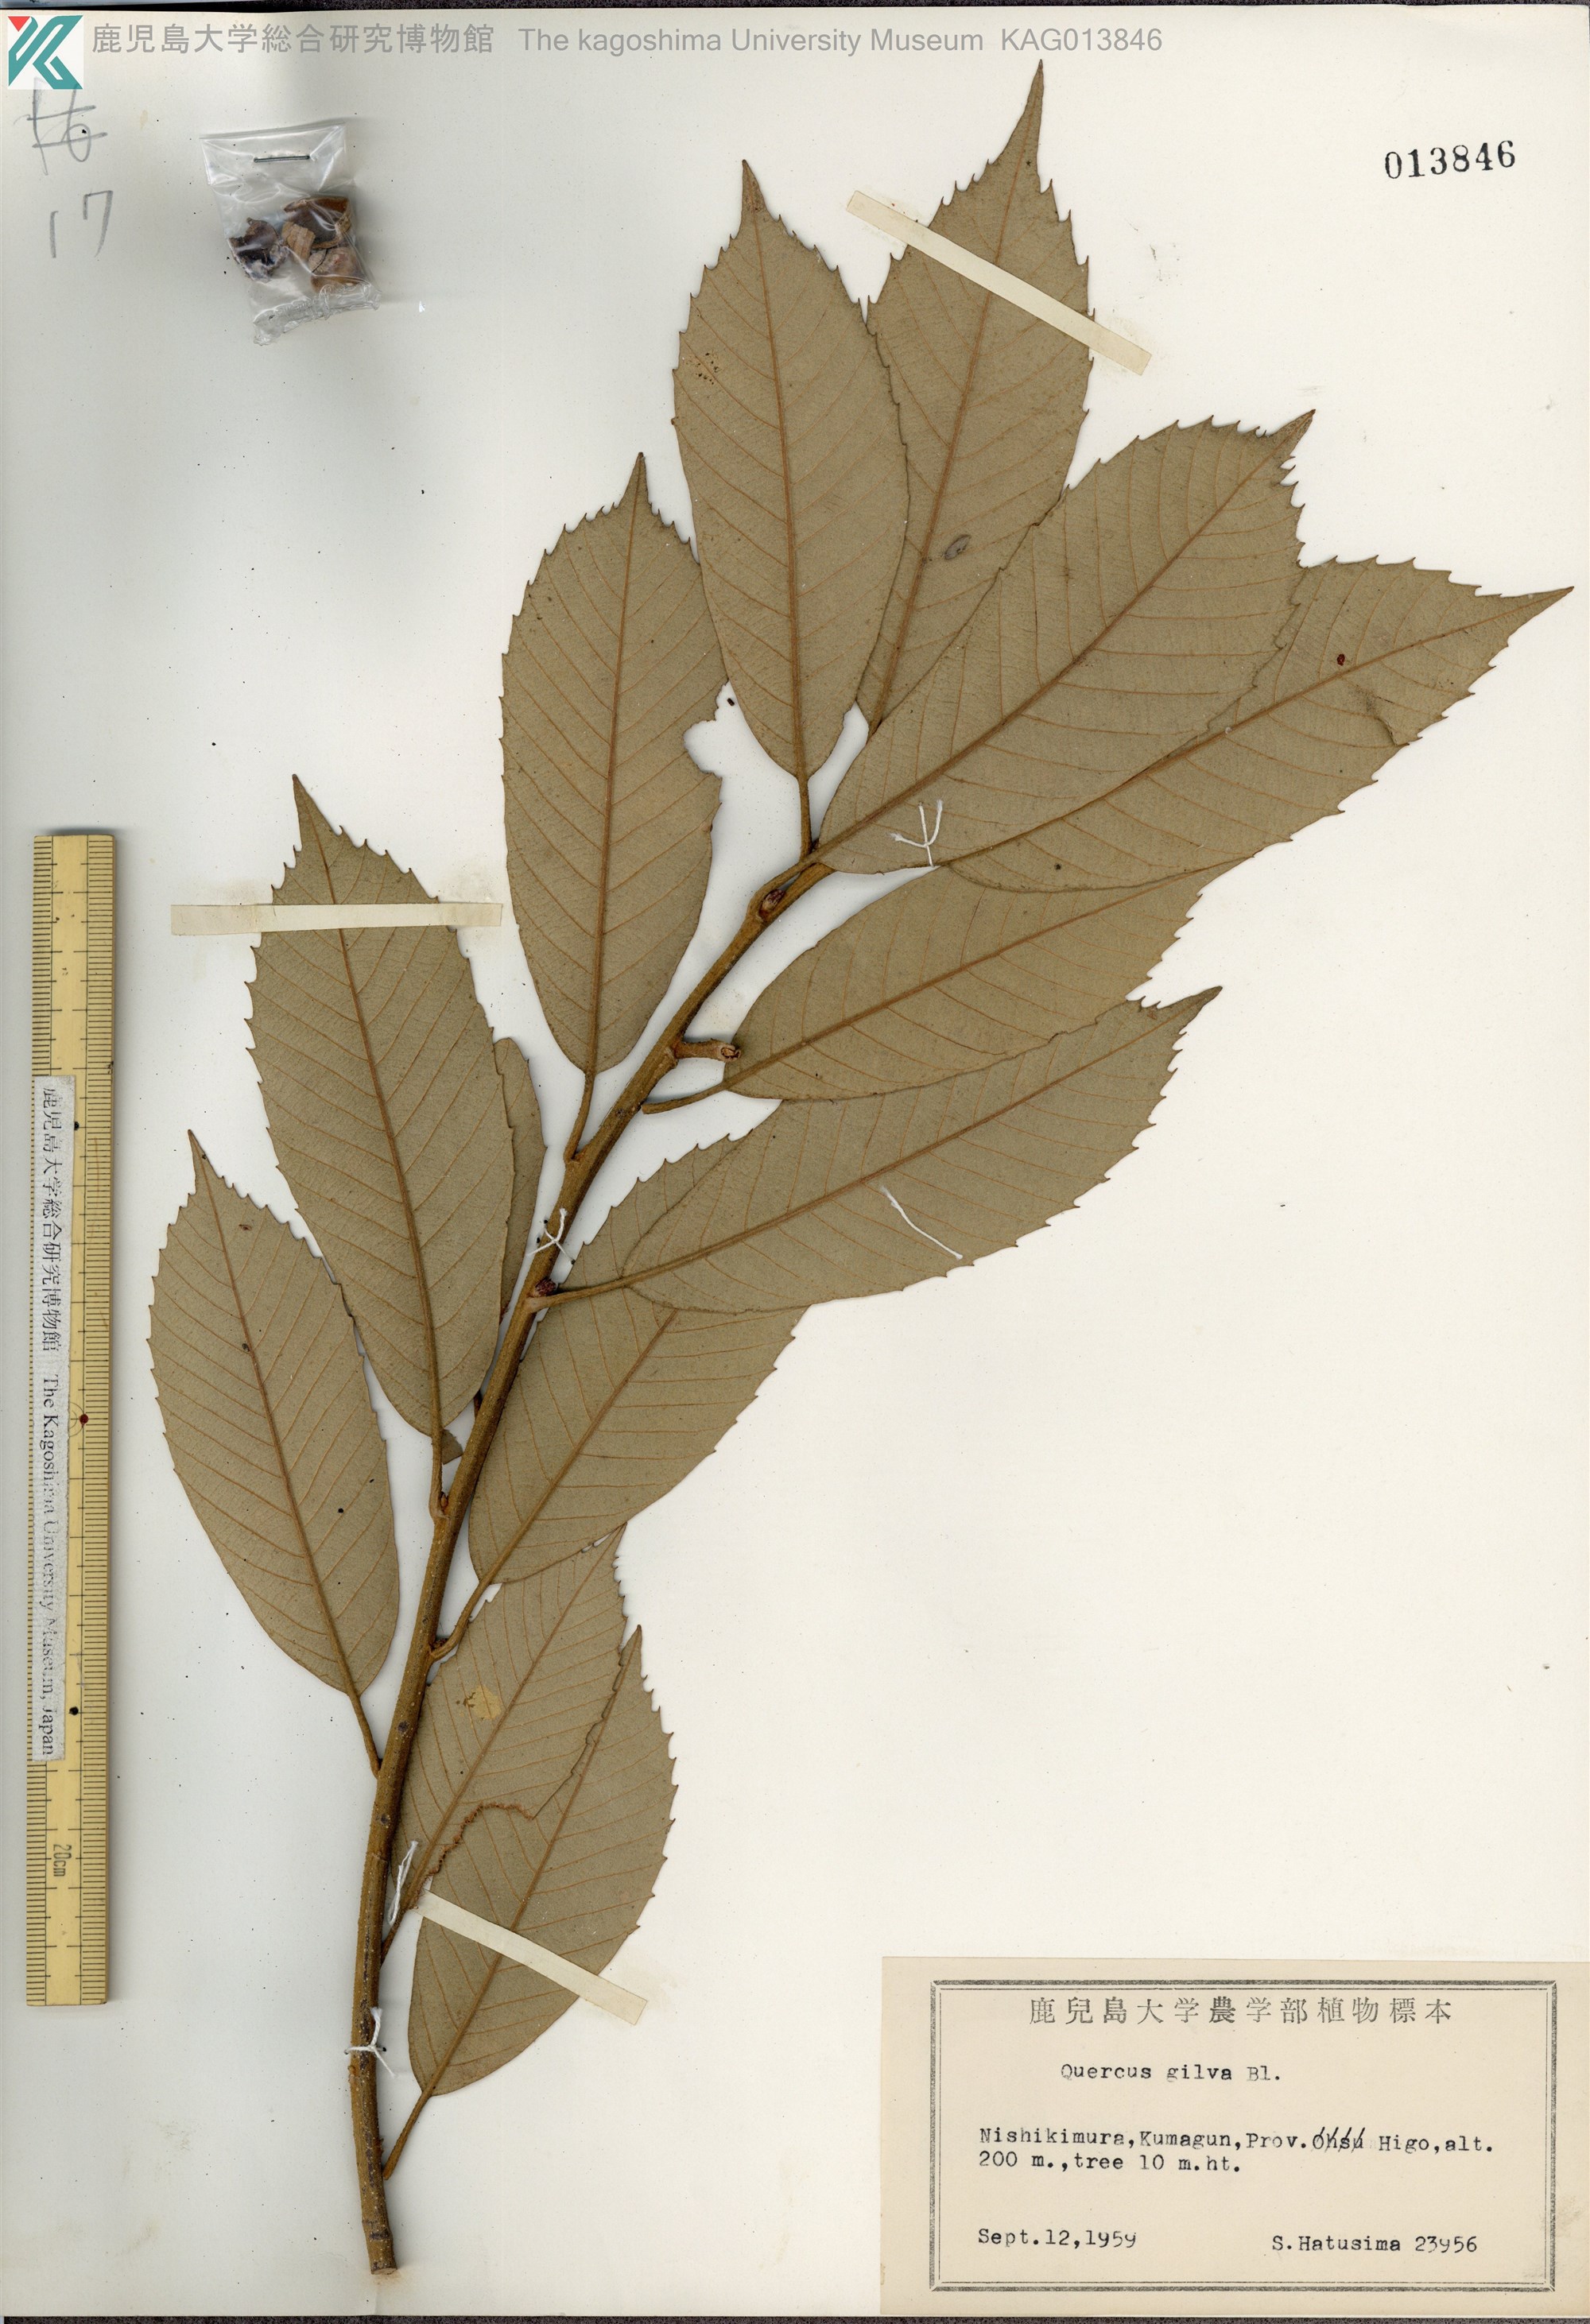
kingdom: Plantae
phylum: Tracheophyta
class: Magnoliopsida
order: Fagales
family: Fagaceae
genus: Quercus
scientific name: Quercus gilva
